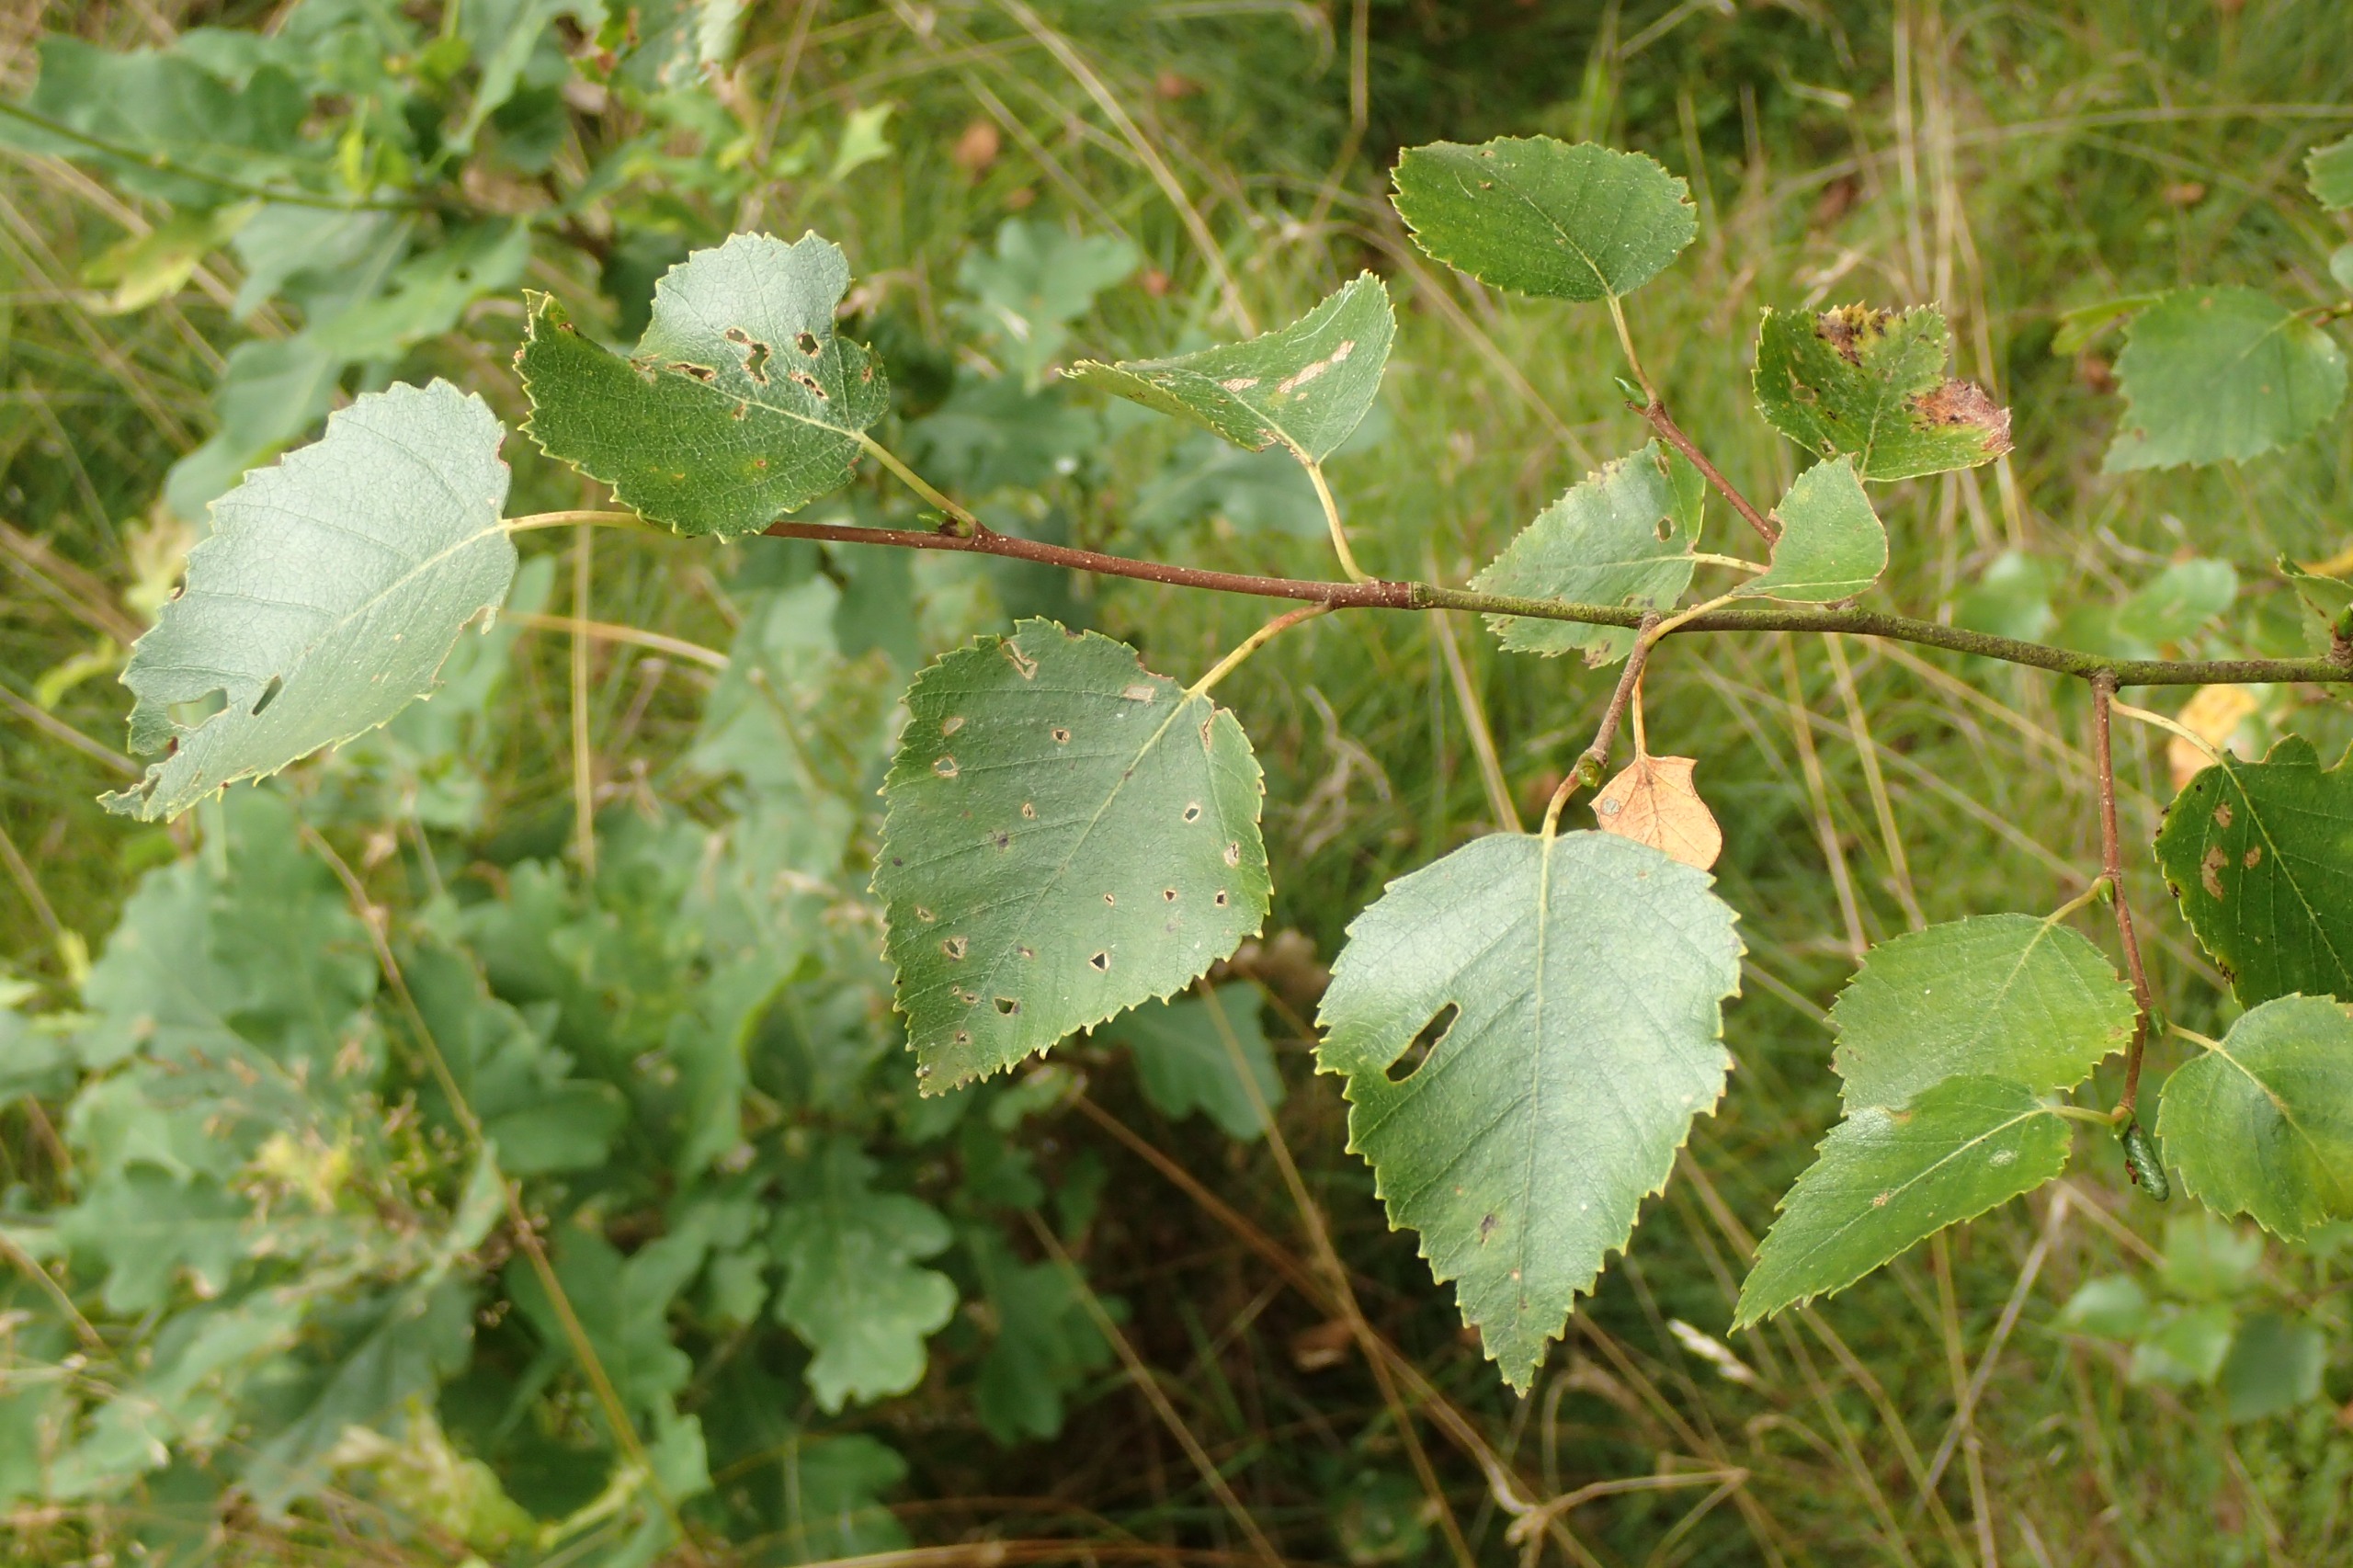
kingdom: Plantae
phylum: Tracheophyta
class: Magnoliopsida
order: Fagales
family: Betulaceae
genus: Betula
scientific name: Betula pendula
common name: Vorte-birk
